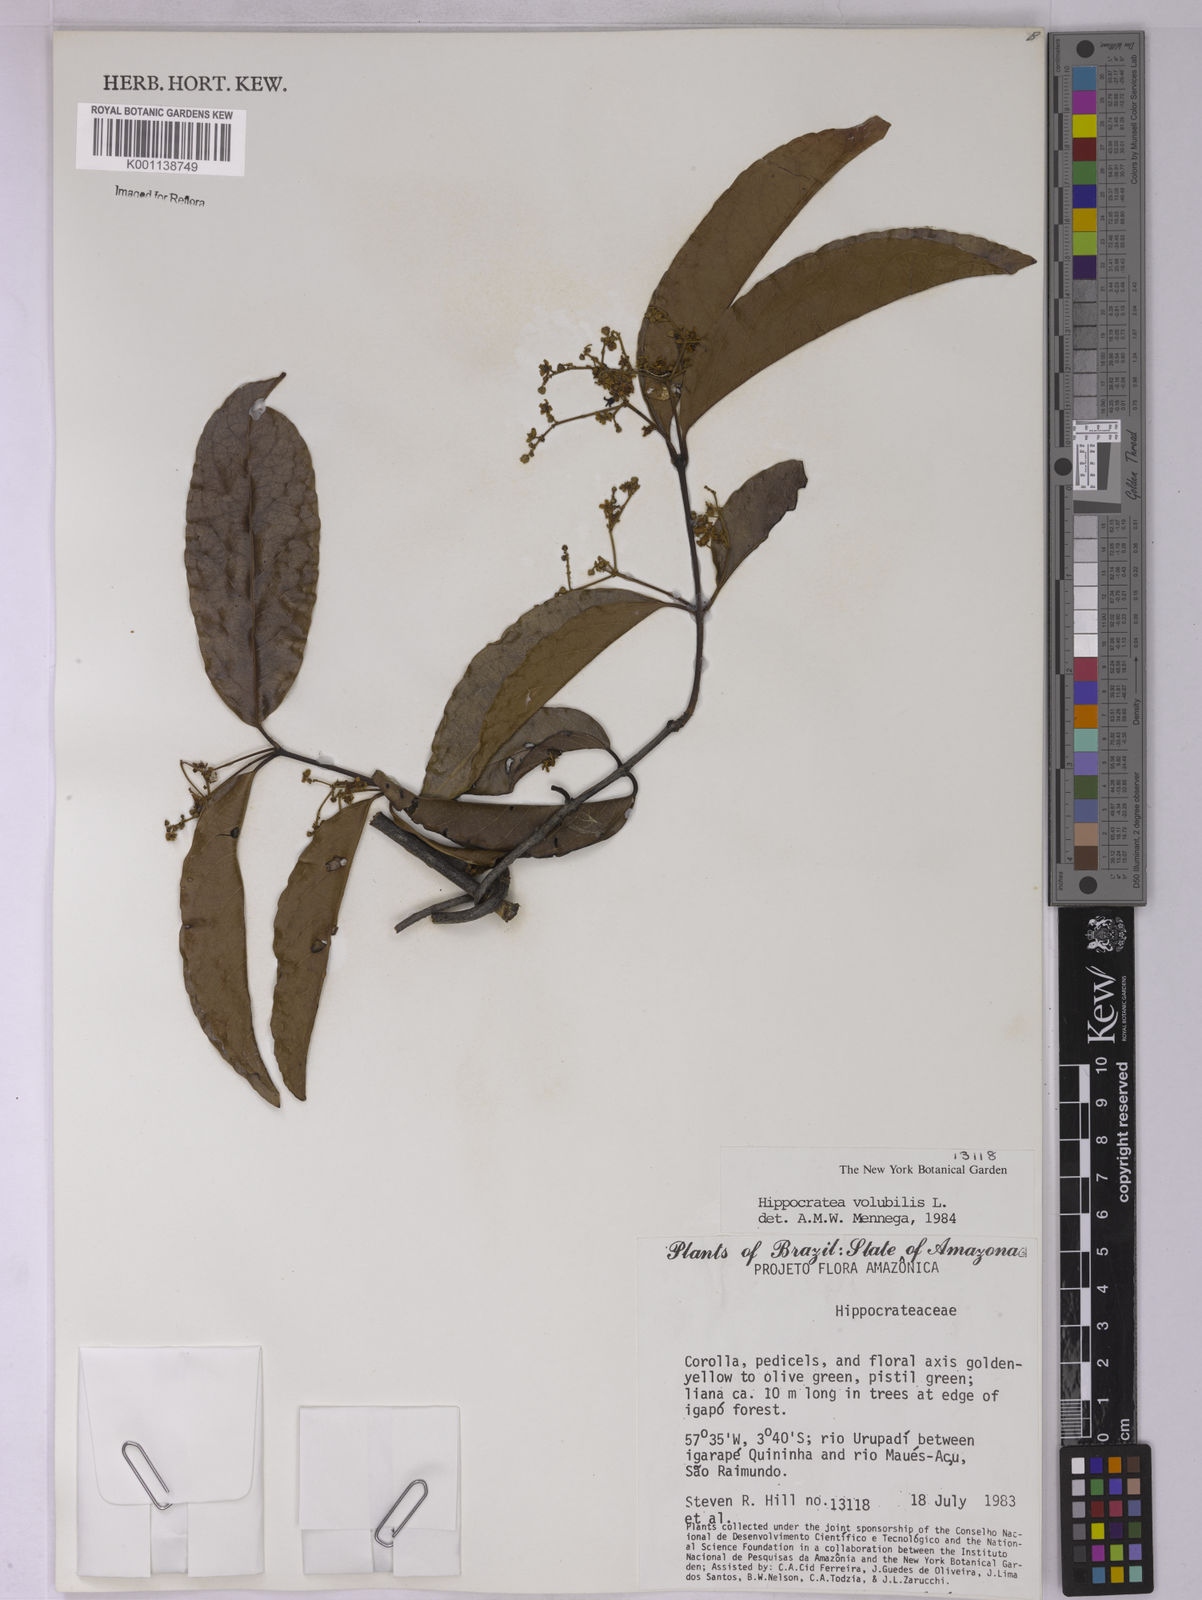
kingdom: Plantae
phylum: Tracheophyta
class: Magnoliopsida
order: Celastrales
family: Celastraceae
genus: Hippocratea
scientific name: Hippocratea volubilis
